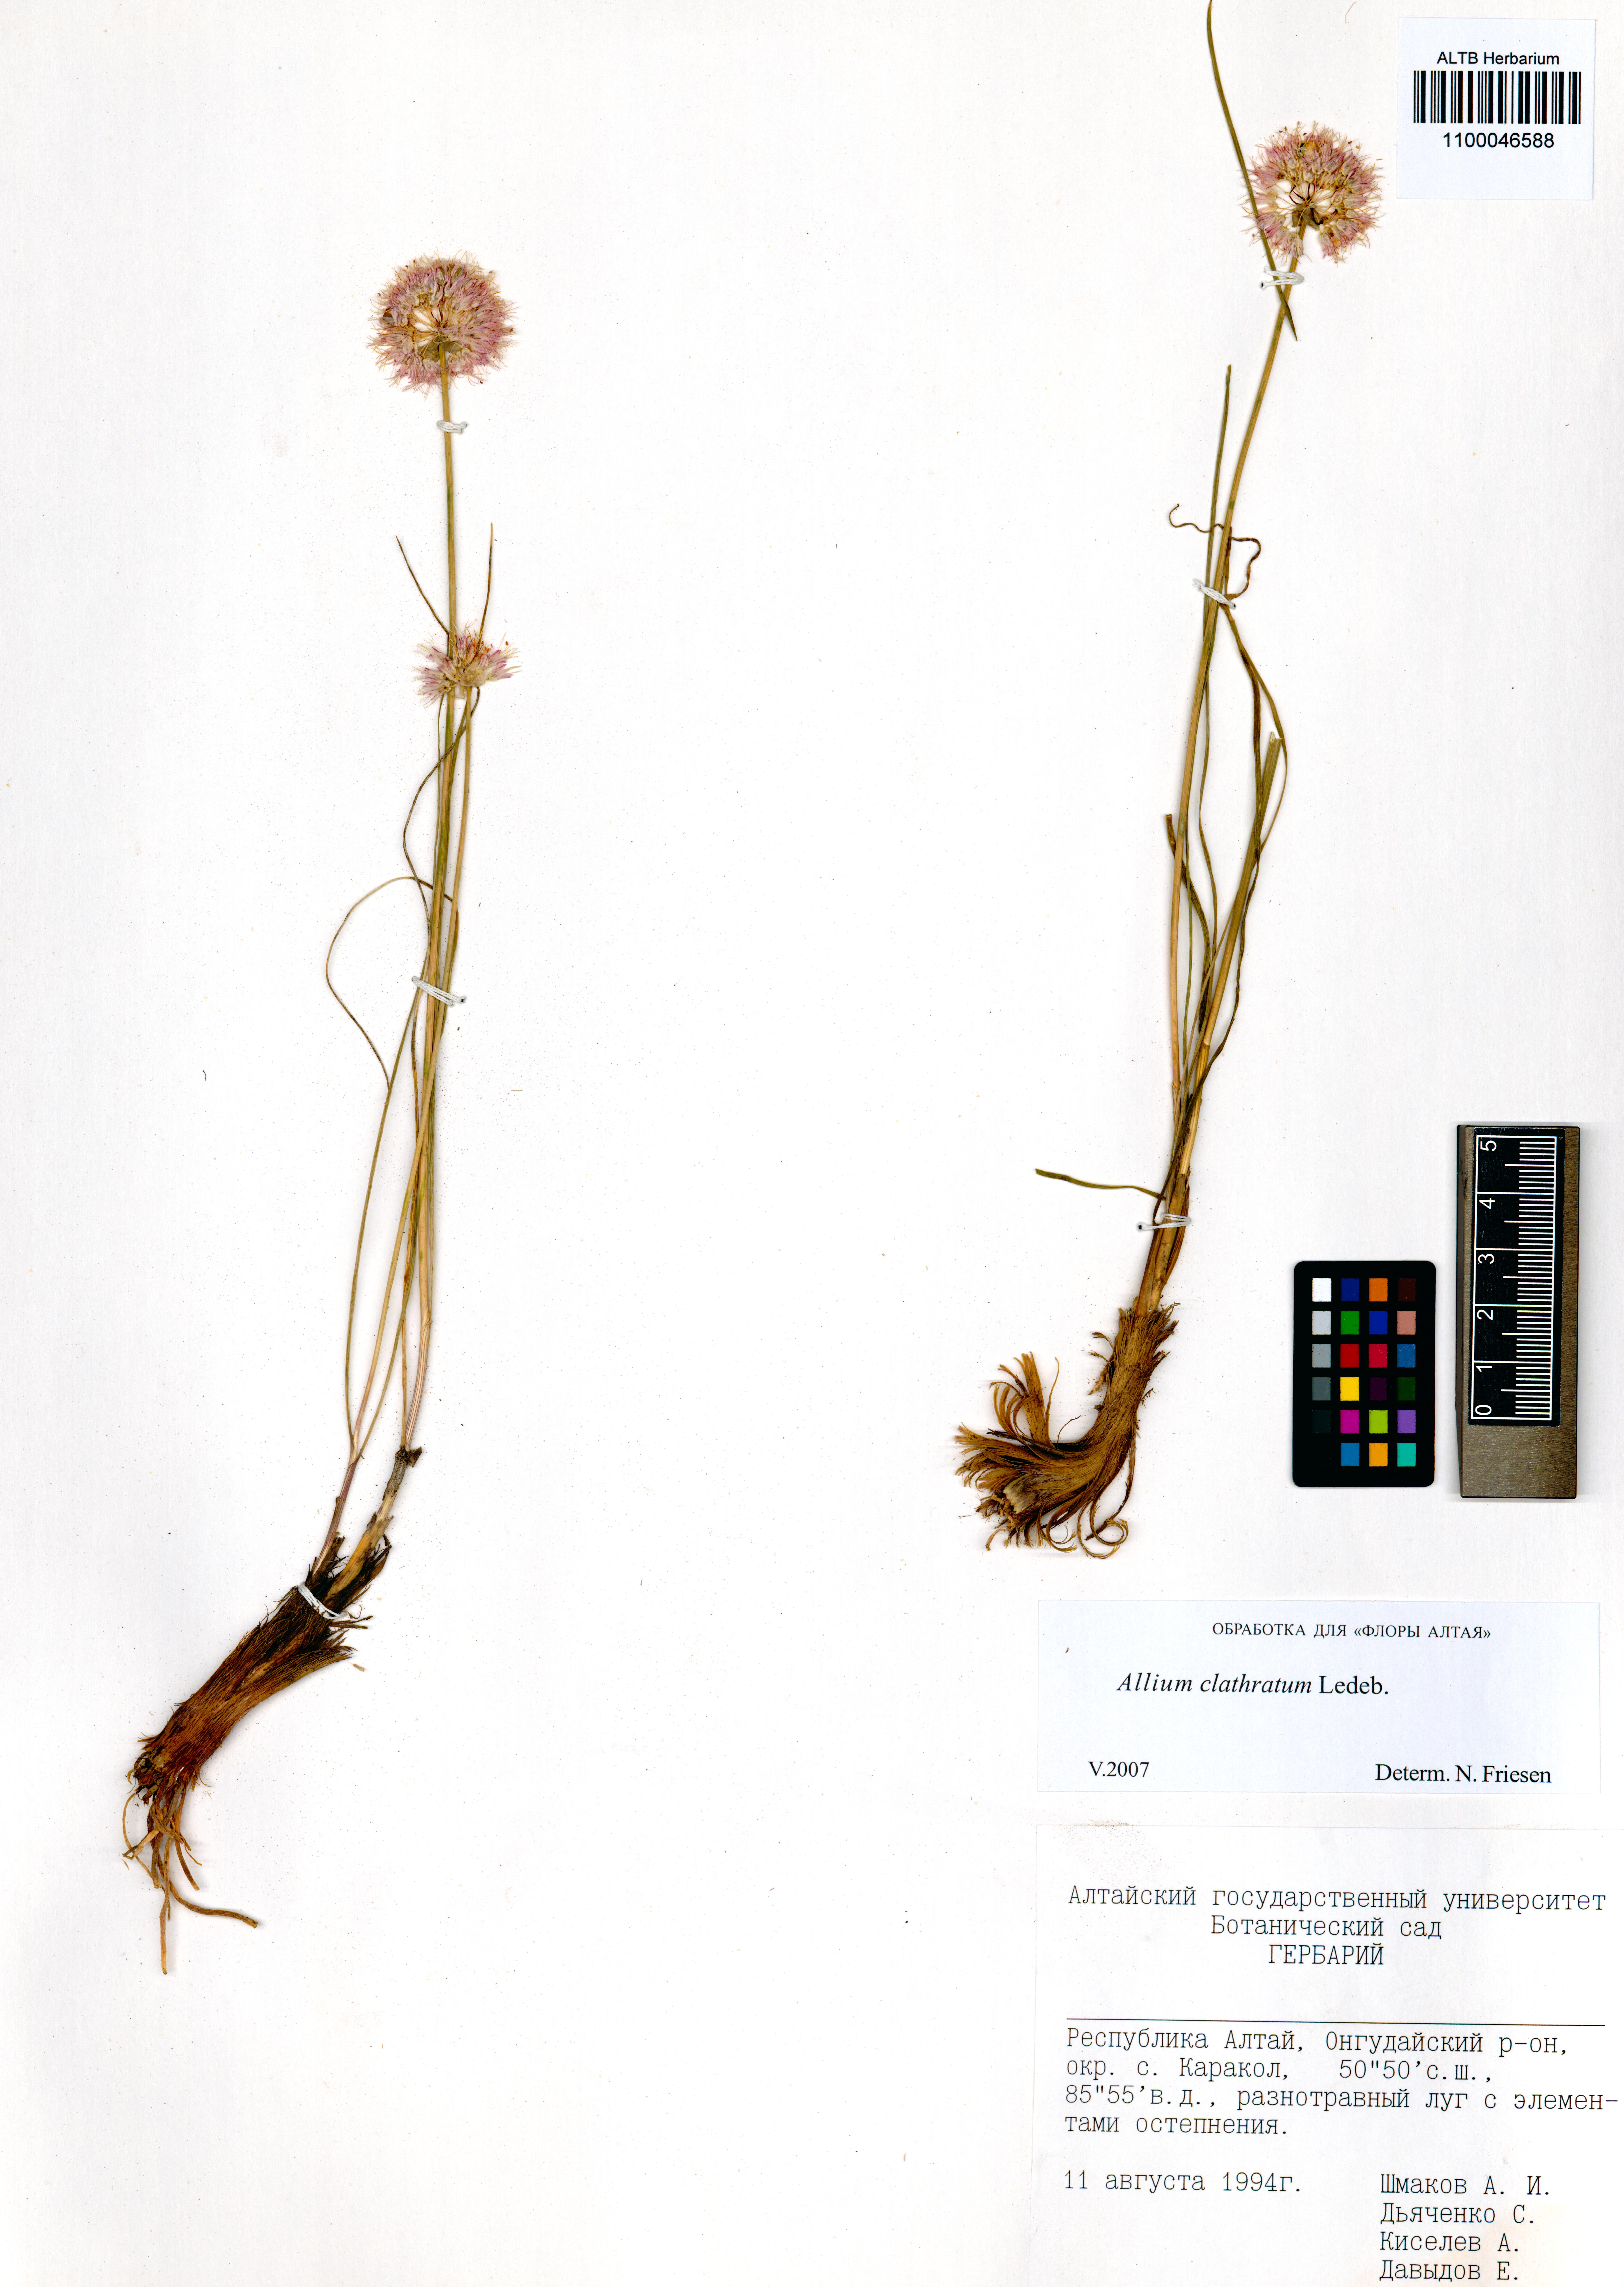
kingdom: Plantae
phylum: Tracheophyta
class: Liliopsida
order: Asparagales
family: Amaryllidaceae
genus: Allium
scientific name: Allium clathratum
